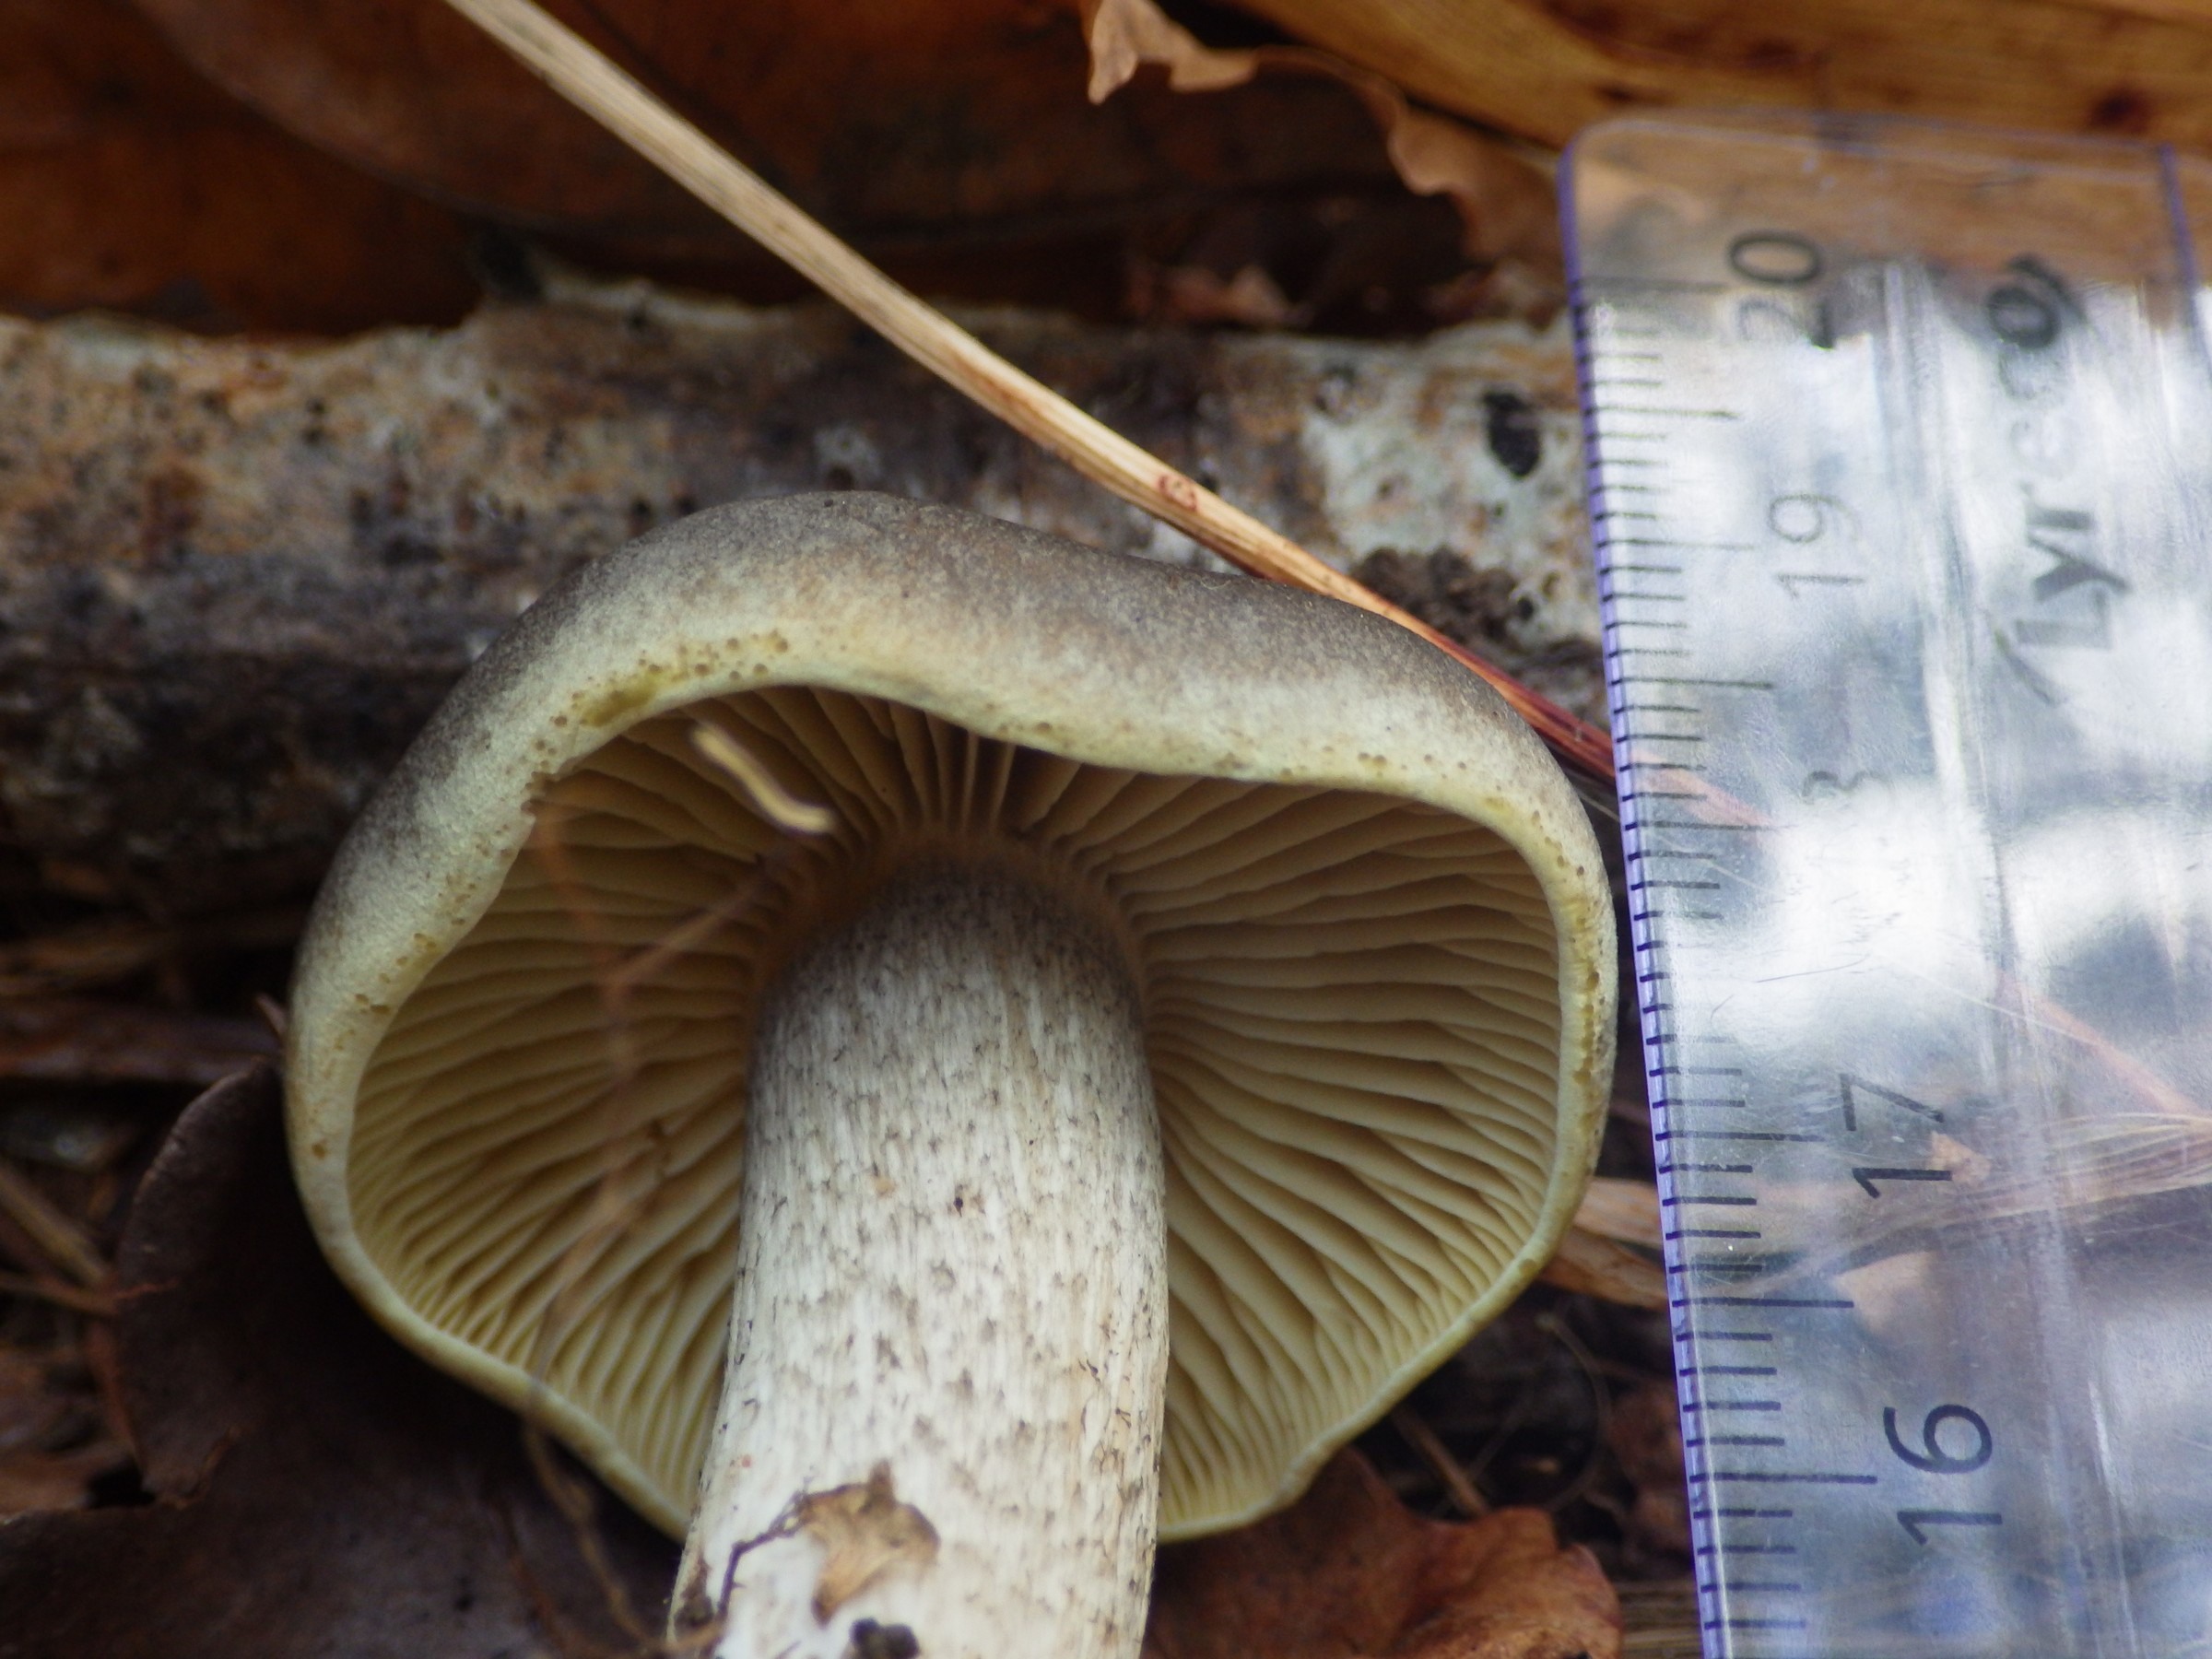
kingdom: Fungi
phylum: Basidiomycota
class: Agaricomycetes
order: Agaricales
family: Tricholomataceae
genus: Tricholoma
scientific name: Tricholoma saponaceum
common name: Soapy trich
